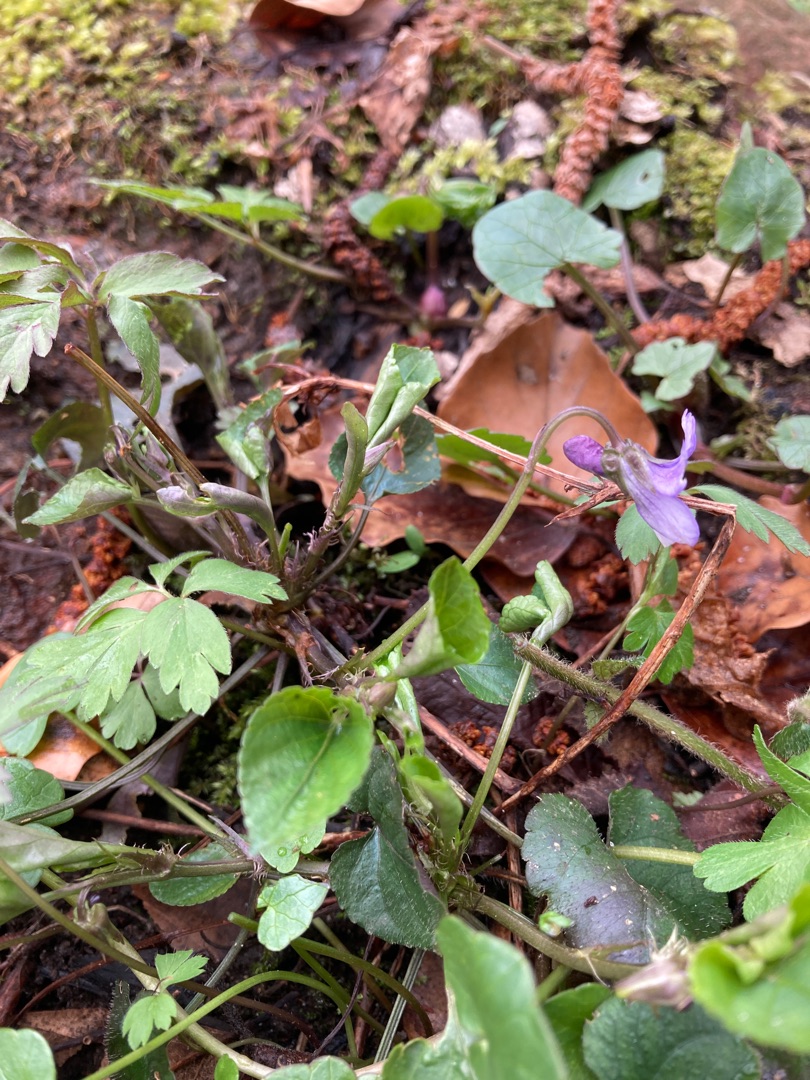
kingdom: Plantae
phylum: Tracheophyta
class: Magnoliopsida
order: Malpighiales
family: Violaceae
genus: Viola
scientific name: Viola reichenbachiana
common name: Skov-viol
